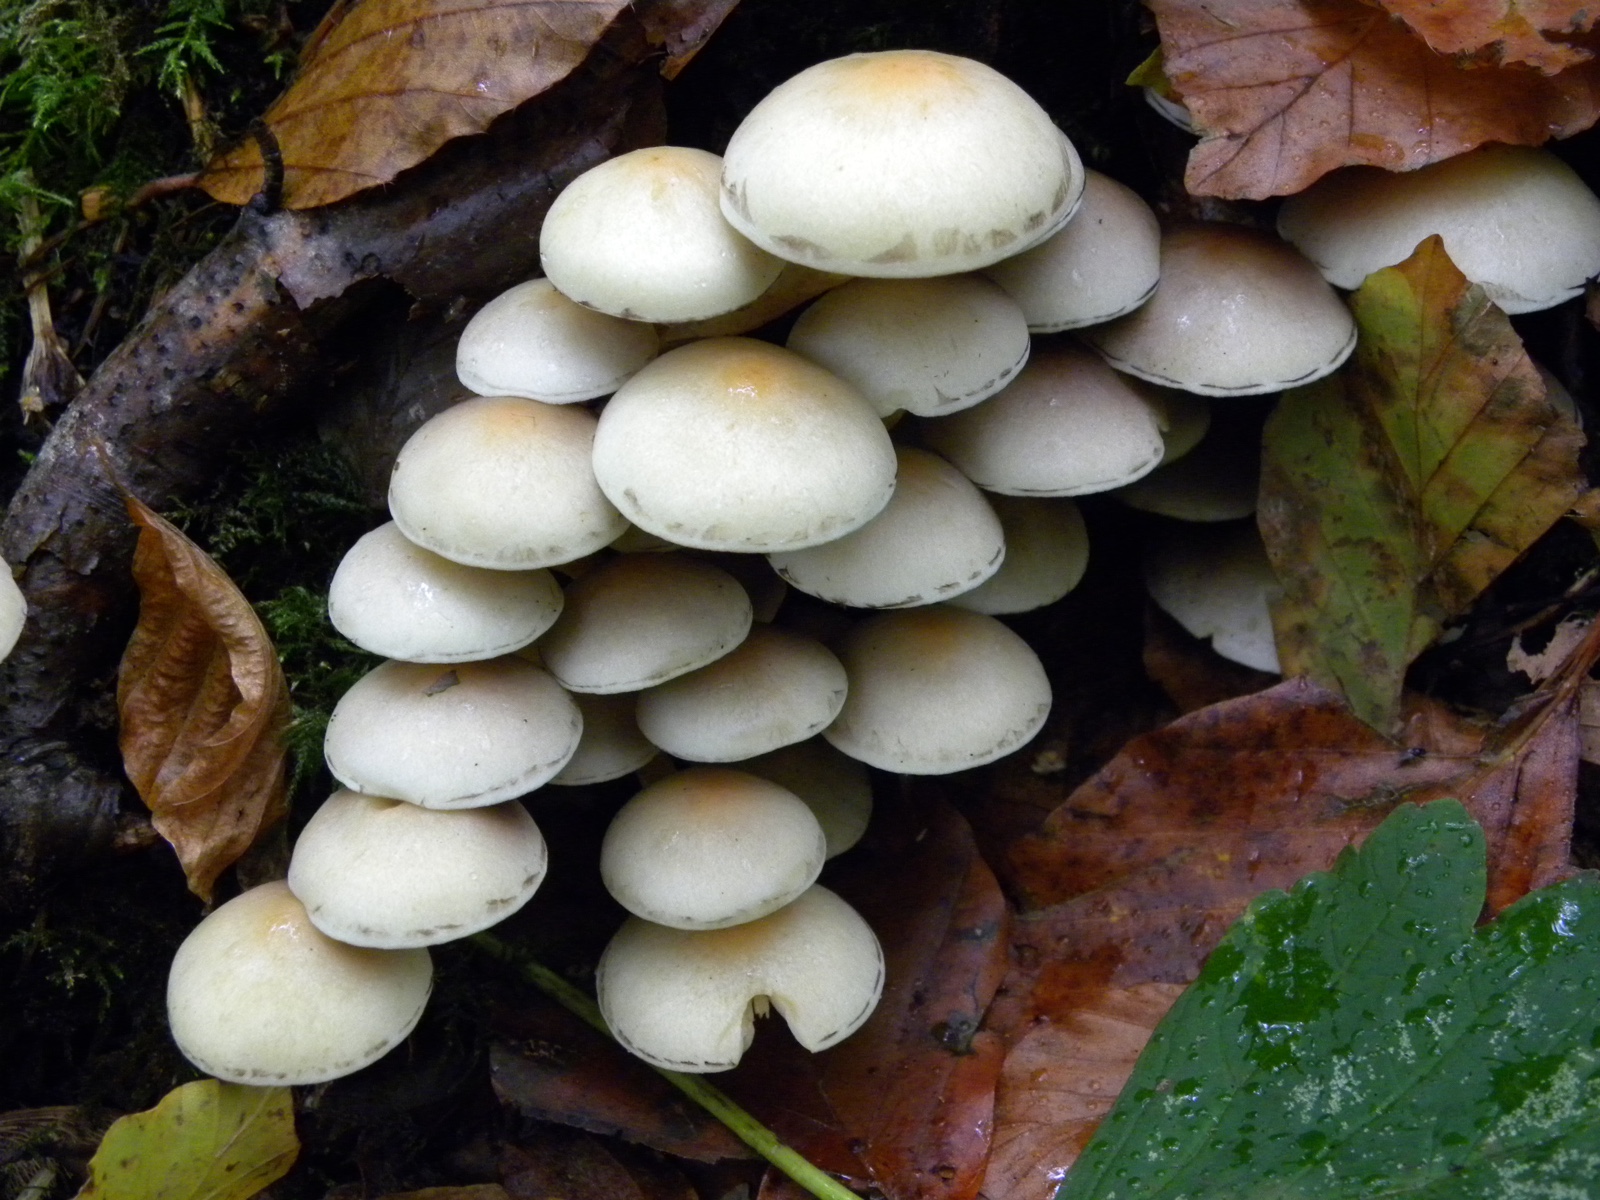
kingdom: Fungi
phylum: Basidiomycota
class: Agaricomycetes
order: Agaricales
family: Strophariaceae
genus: Hypholoma
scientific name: Hypholoma fasciculare
